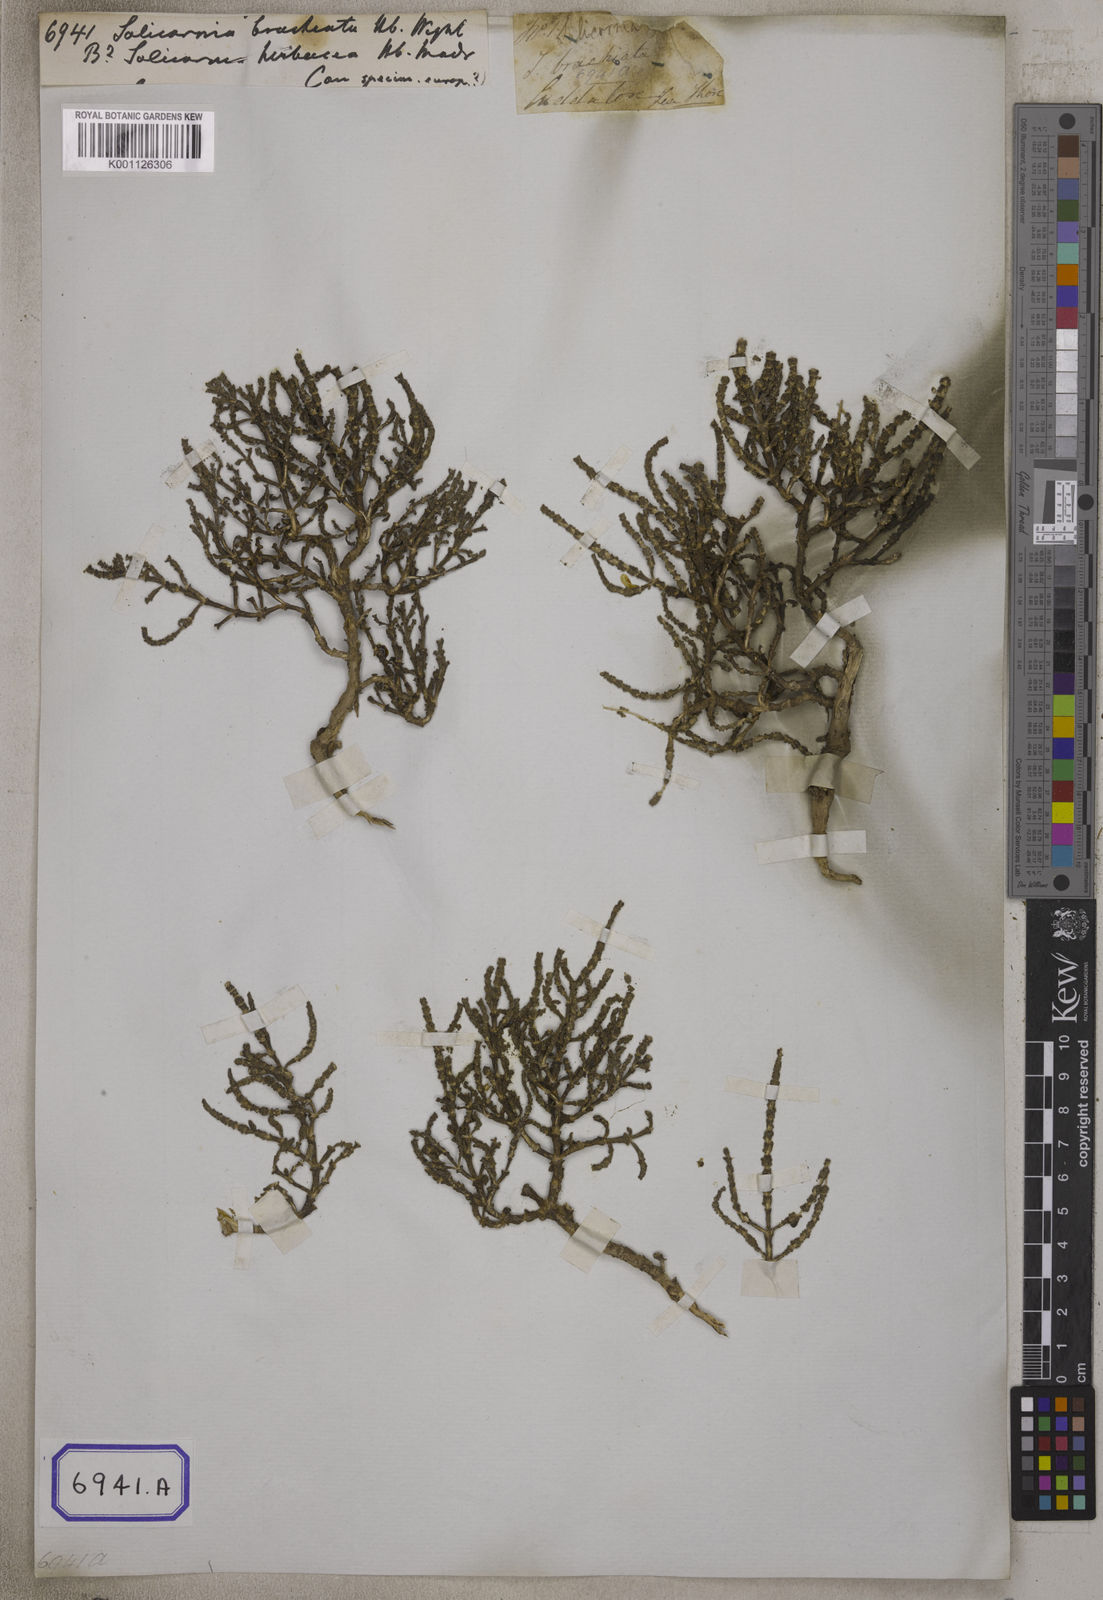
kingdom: Plantae
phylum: Tracheophyta
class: Magnoliopsida
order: Caryophyllales
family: Amaranthaceae
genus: Salicornia
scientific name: Salicornia brachiata
